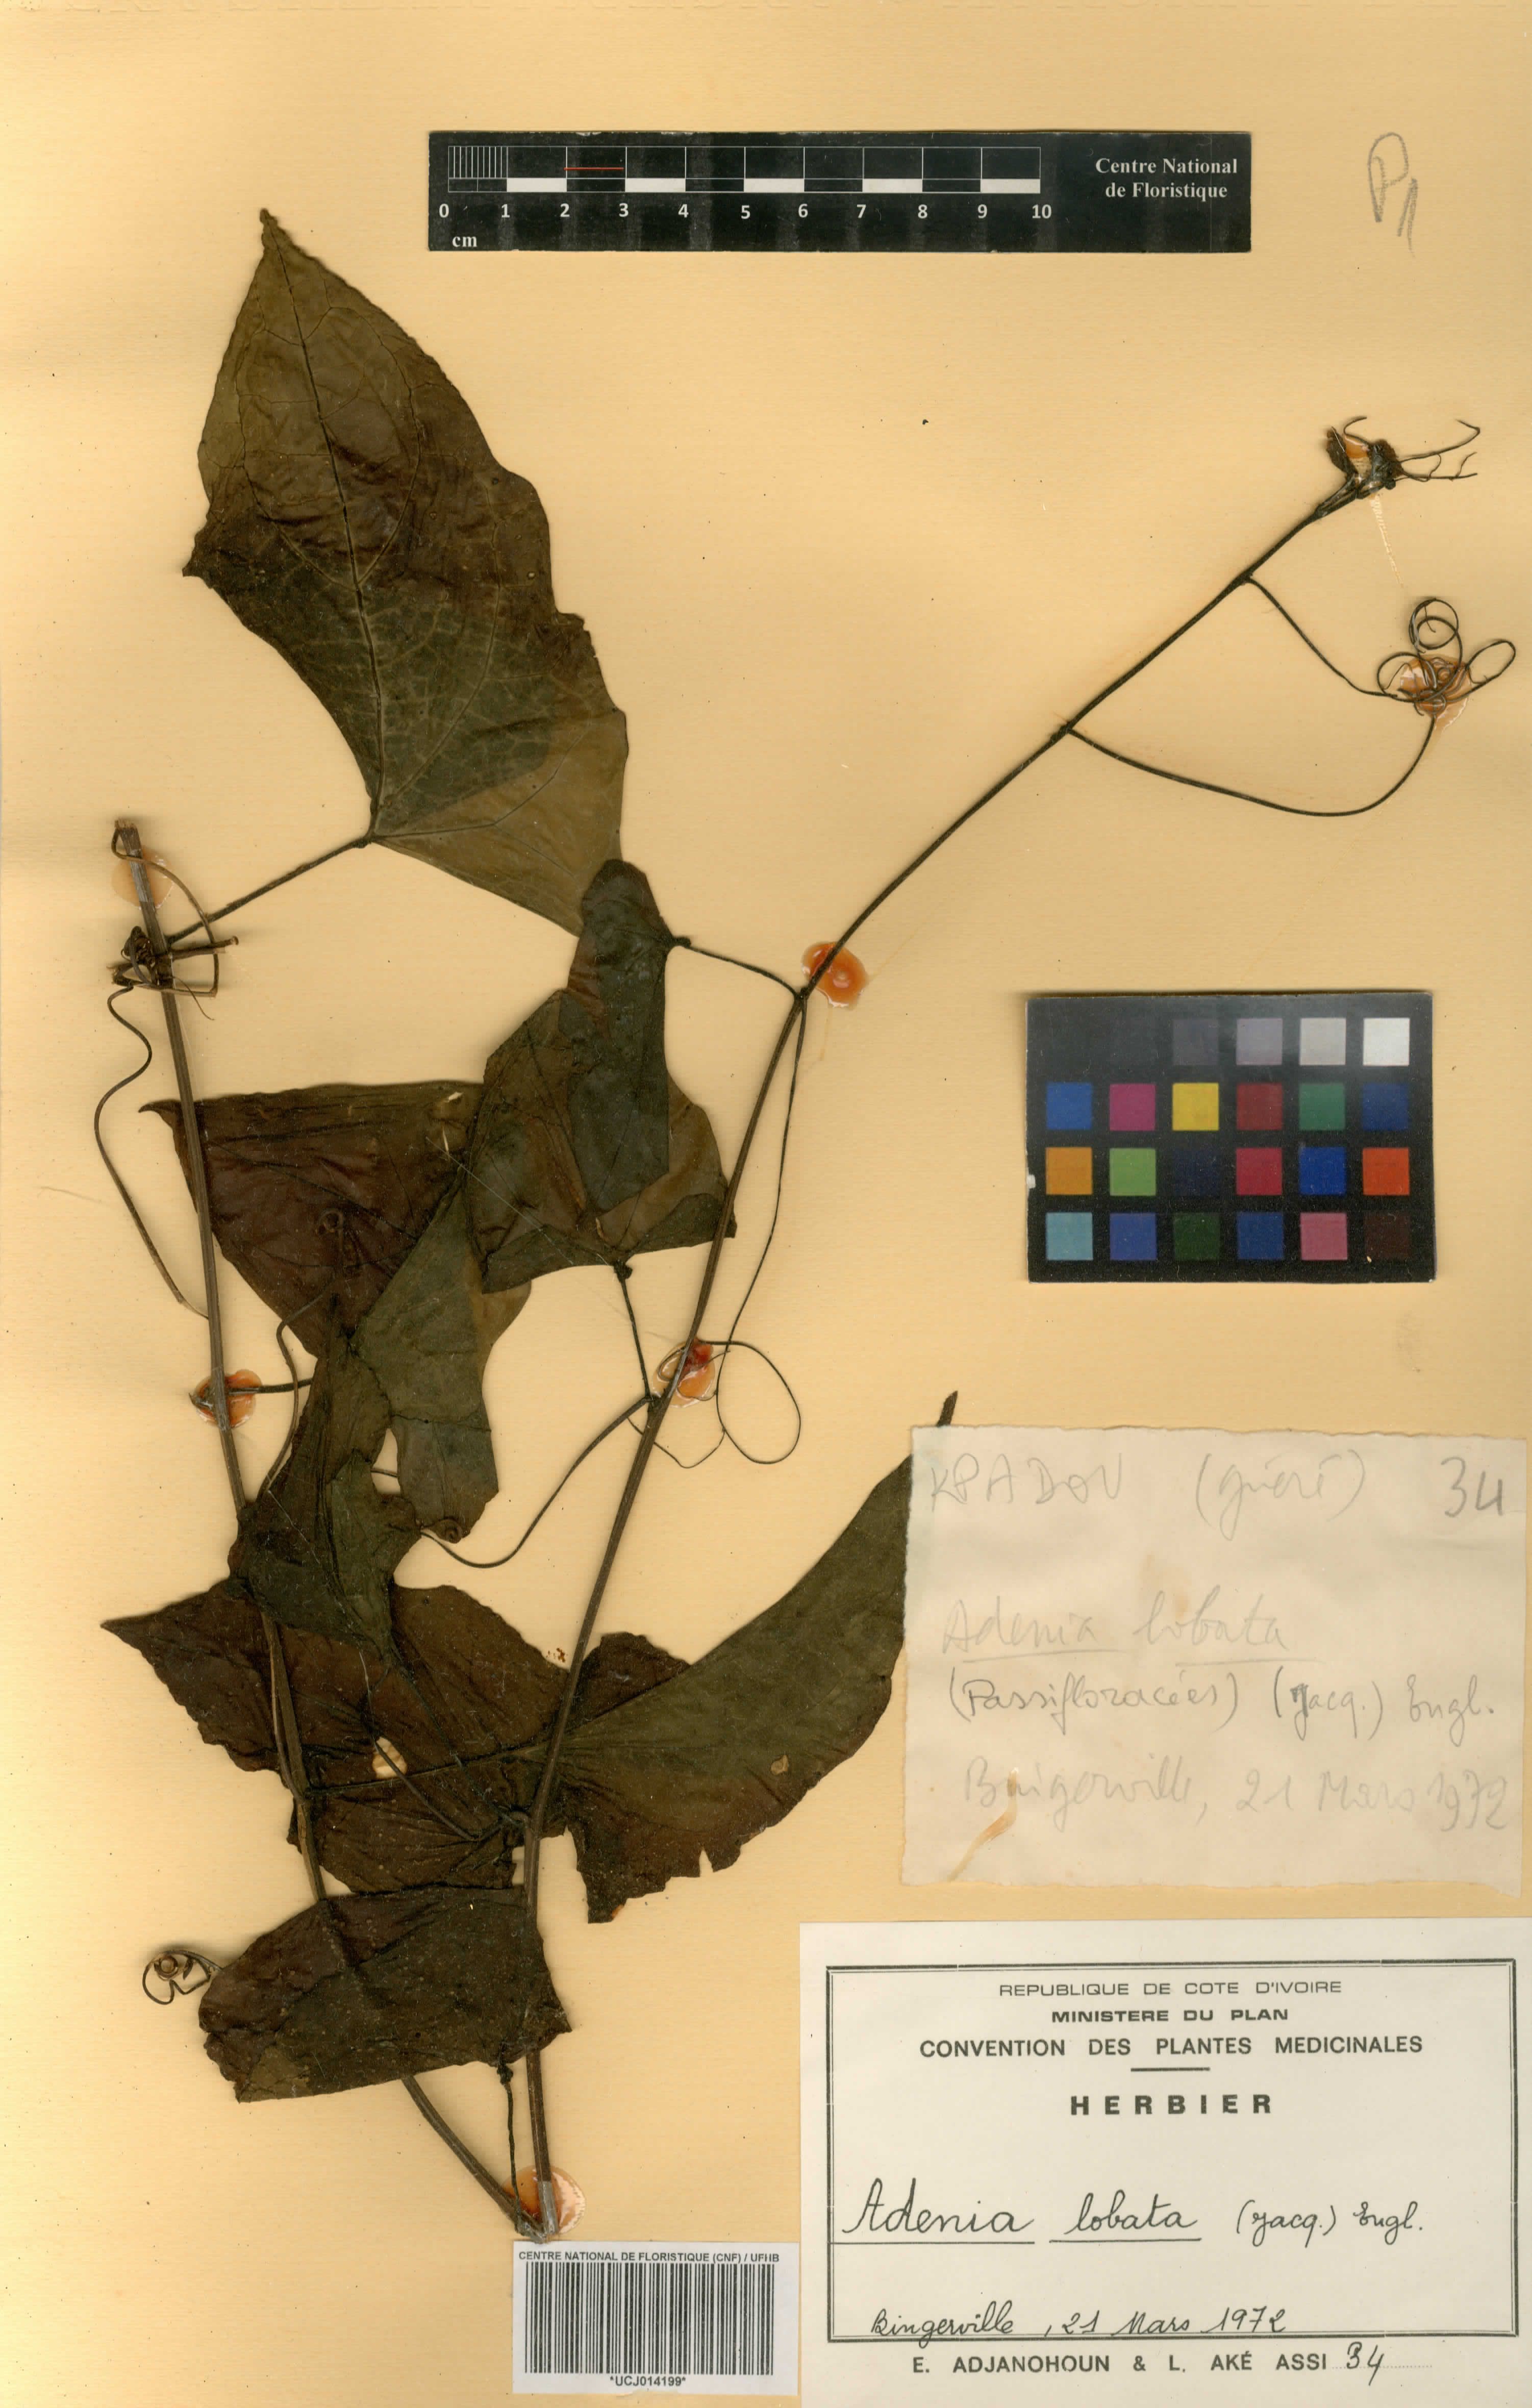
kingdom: Plantae
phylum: Tracheophyta
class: Magnoliopsida
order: Malpighiales
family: Passifloraceae
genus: Adenia
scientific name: Adenia lobata
